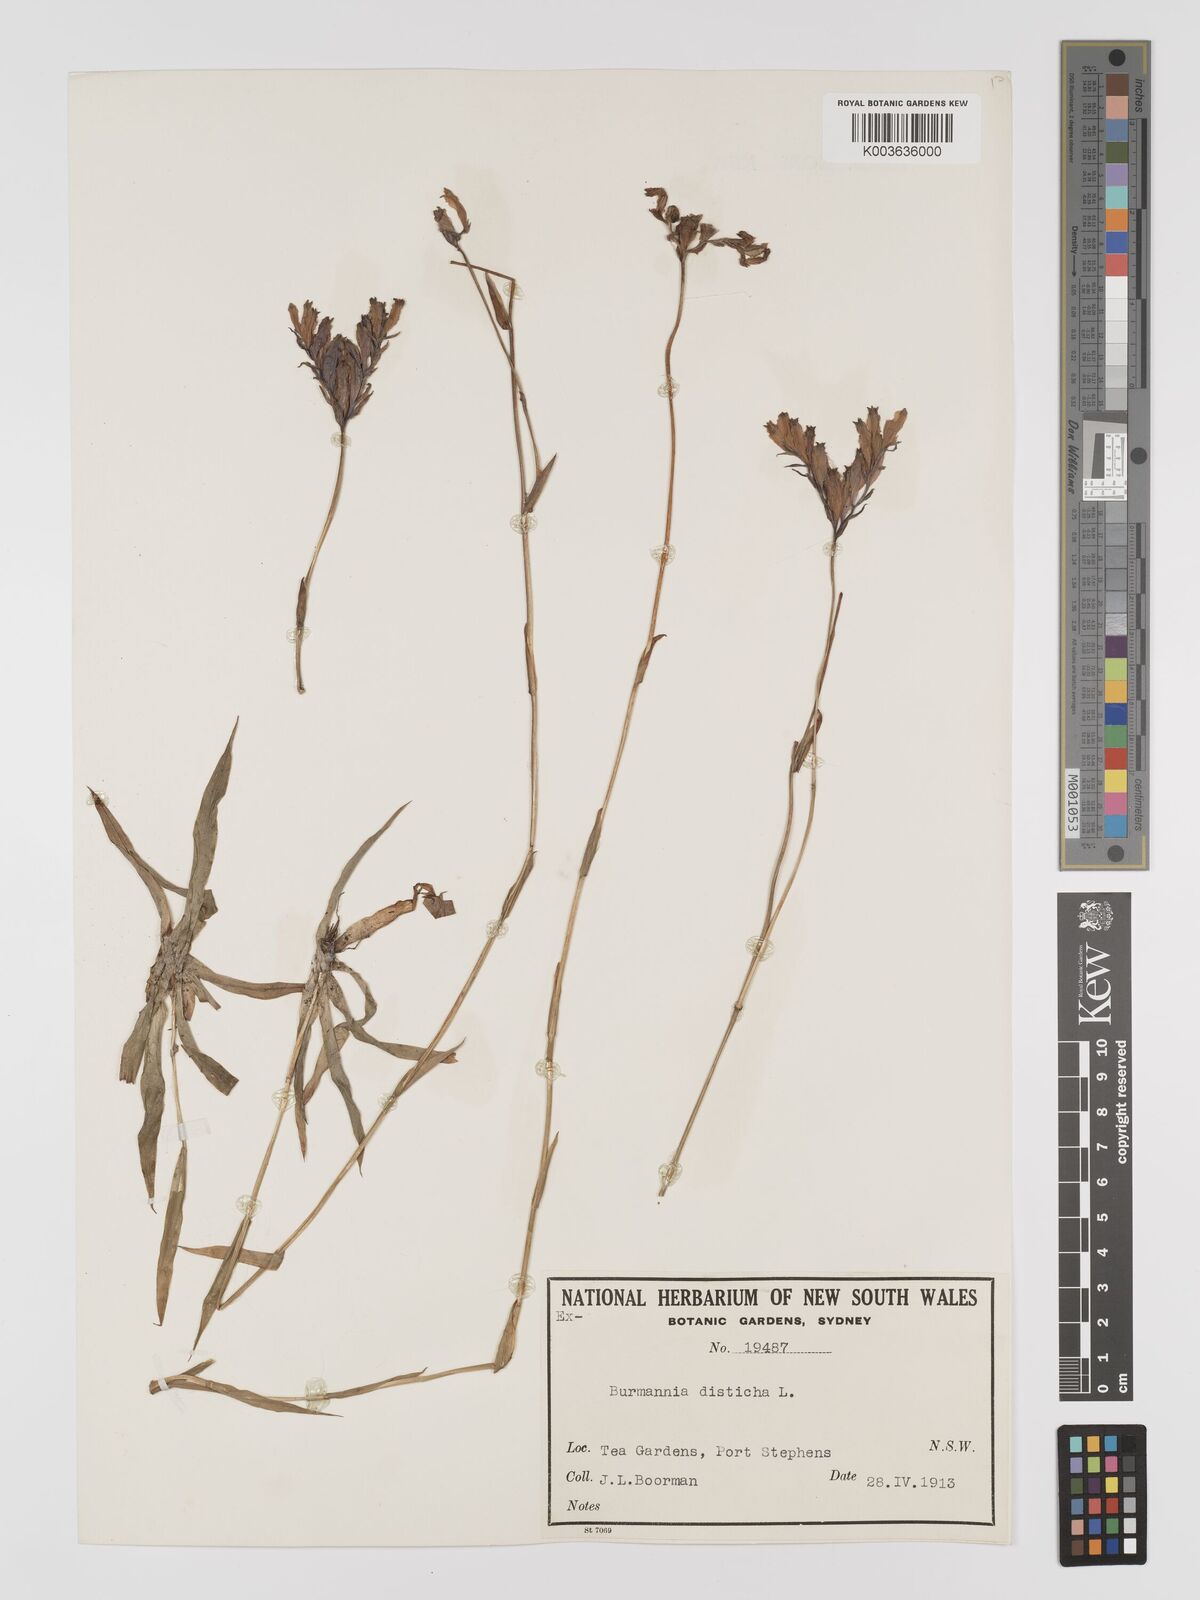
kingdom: Plantae
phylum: Tracheophyta
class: Liliopsida
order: Dioscoreales
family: Burmanniaceae
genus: Burmannia
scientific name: Burmannia disticha
